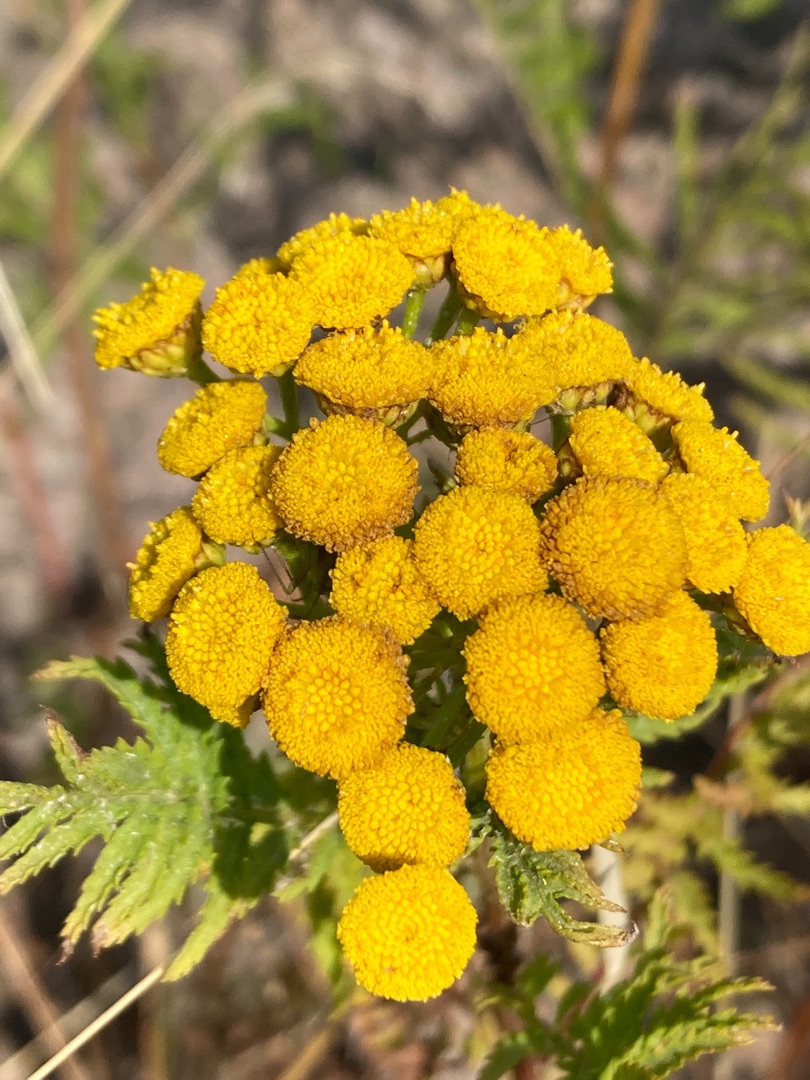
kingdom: Plantae
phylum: Tracheophyta
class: Magnoliopsida
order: Asterales
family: Asteraceae
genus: Tanacetum
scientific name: Tanacetum vulgare
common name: Rejnfan
